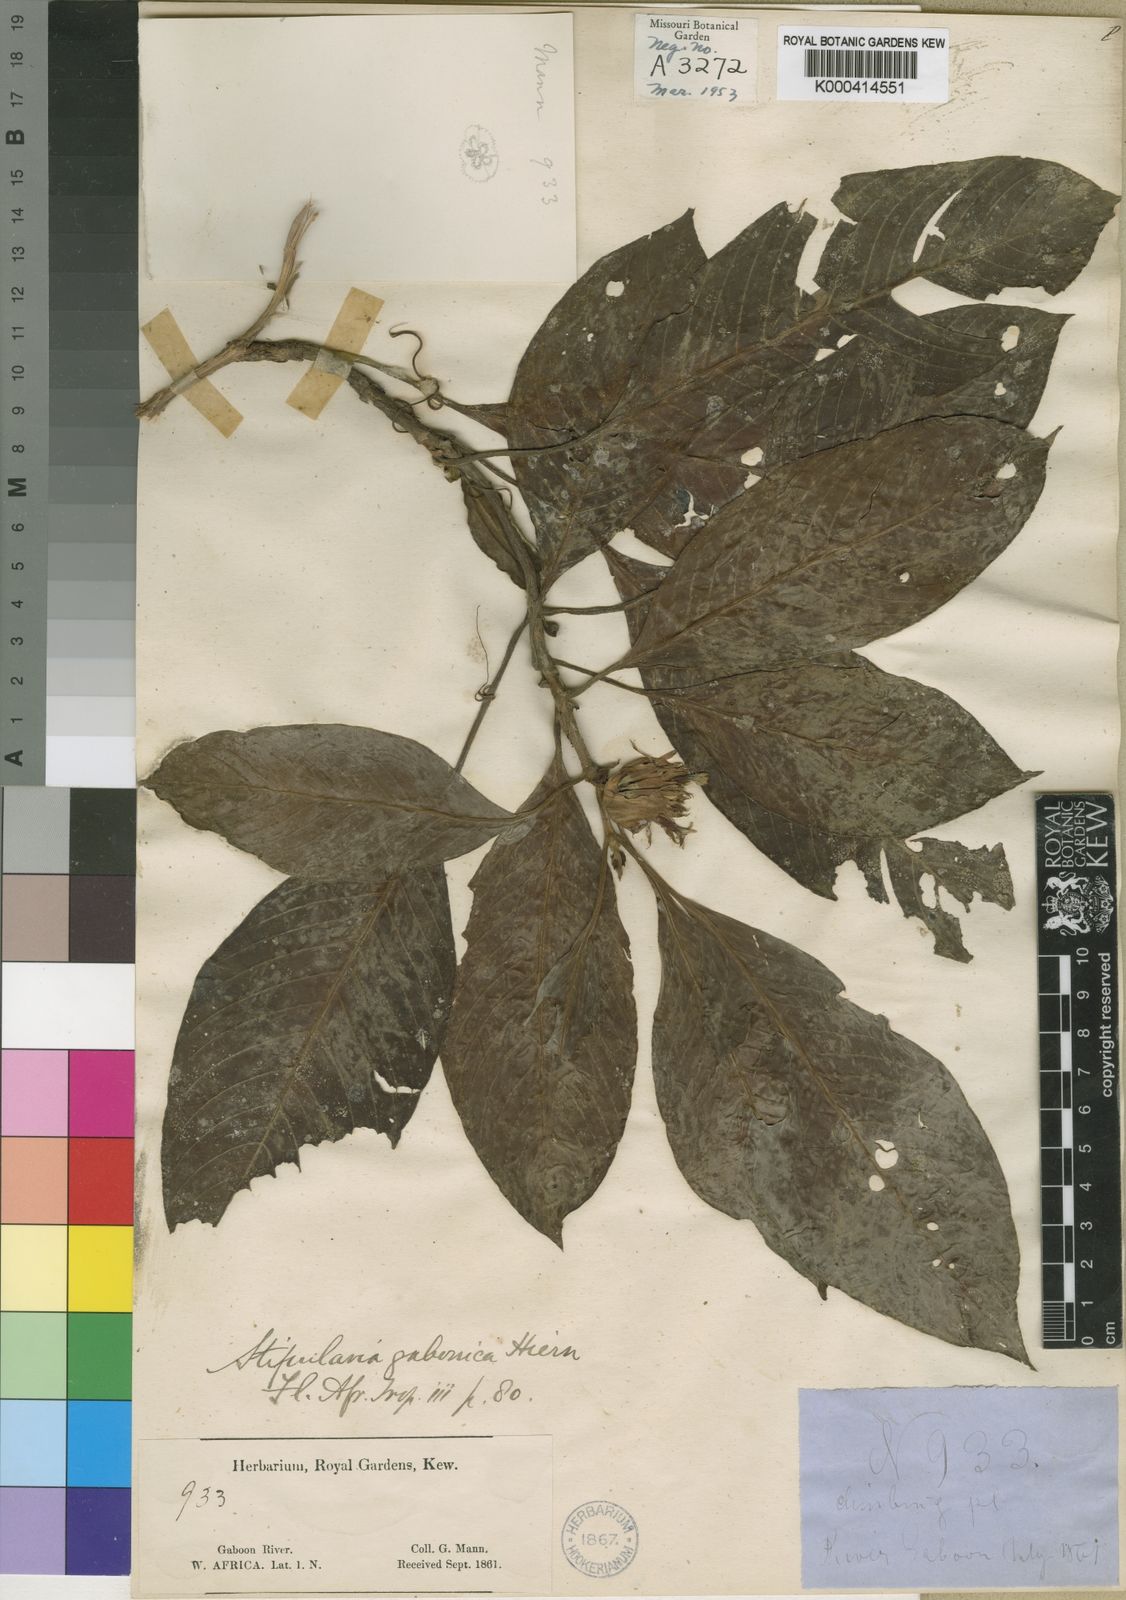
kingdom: Plantae
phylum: Tracheophyta
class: Magnoliopsida
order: Gentianales
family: Rubiaceae
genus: Sabicea
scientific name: Sabicea gabonica
